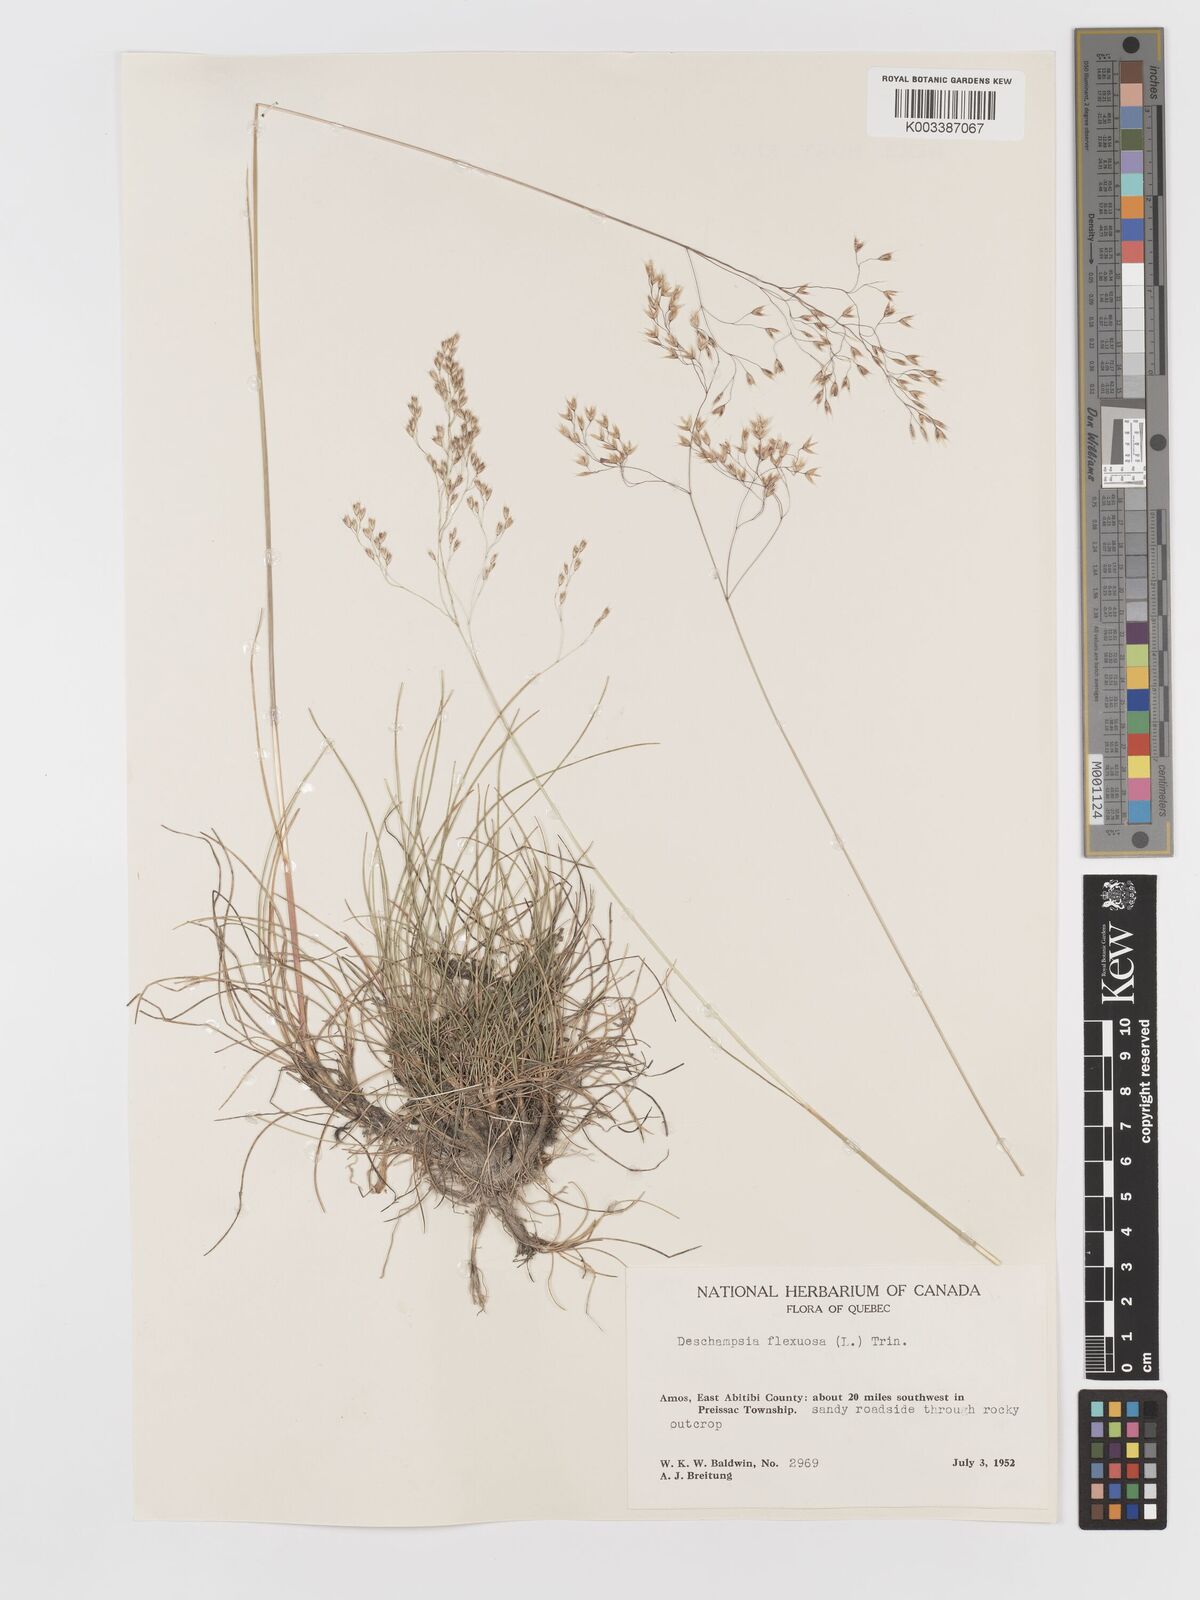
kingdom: Plantae
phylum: Tracheophyta
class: Liliopsida
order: Poales
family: Poaceae
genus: Avenella
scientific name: Avenella flexuosa
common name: Wavy hairgrass
